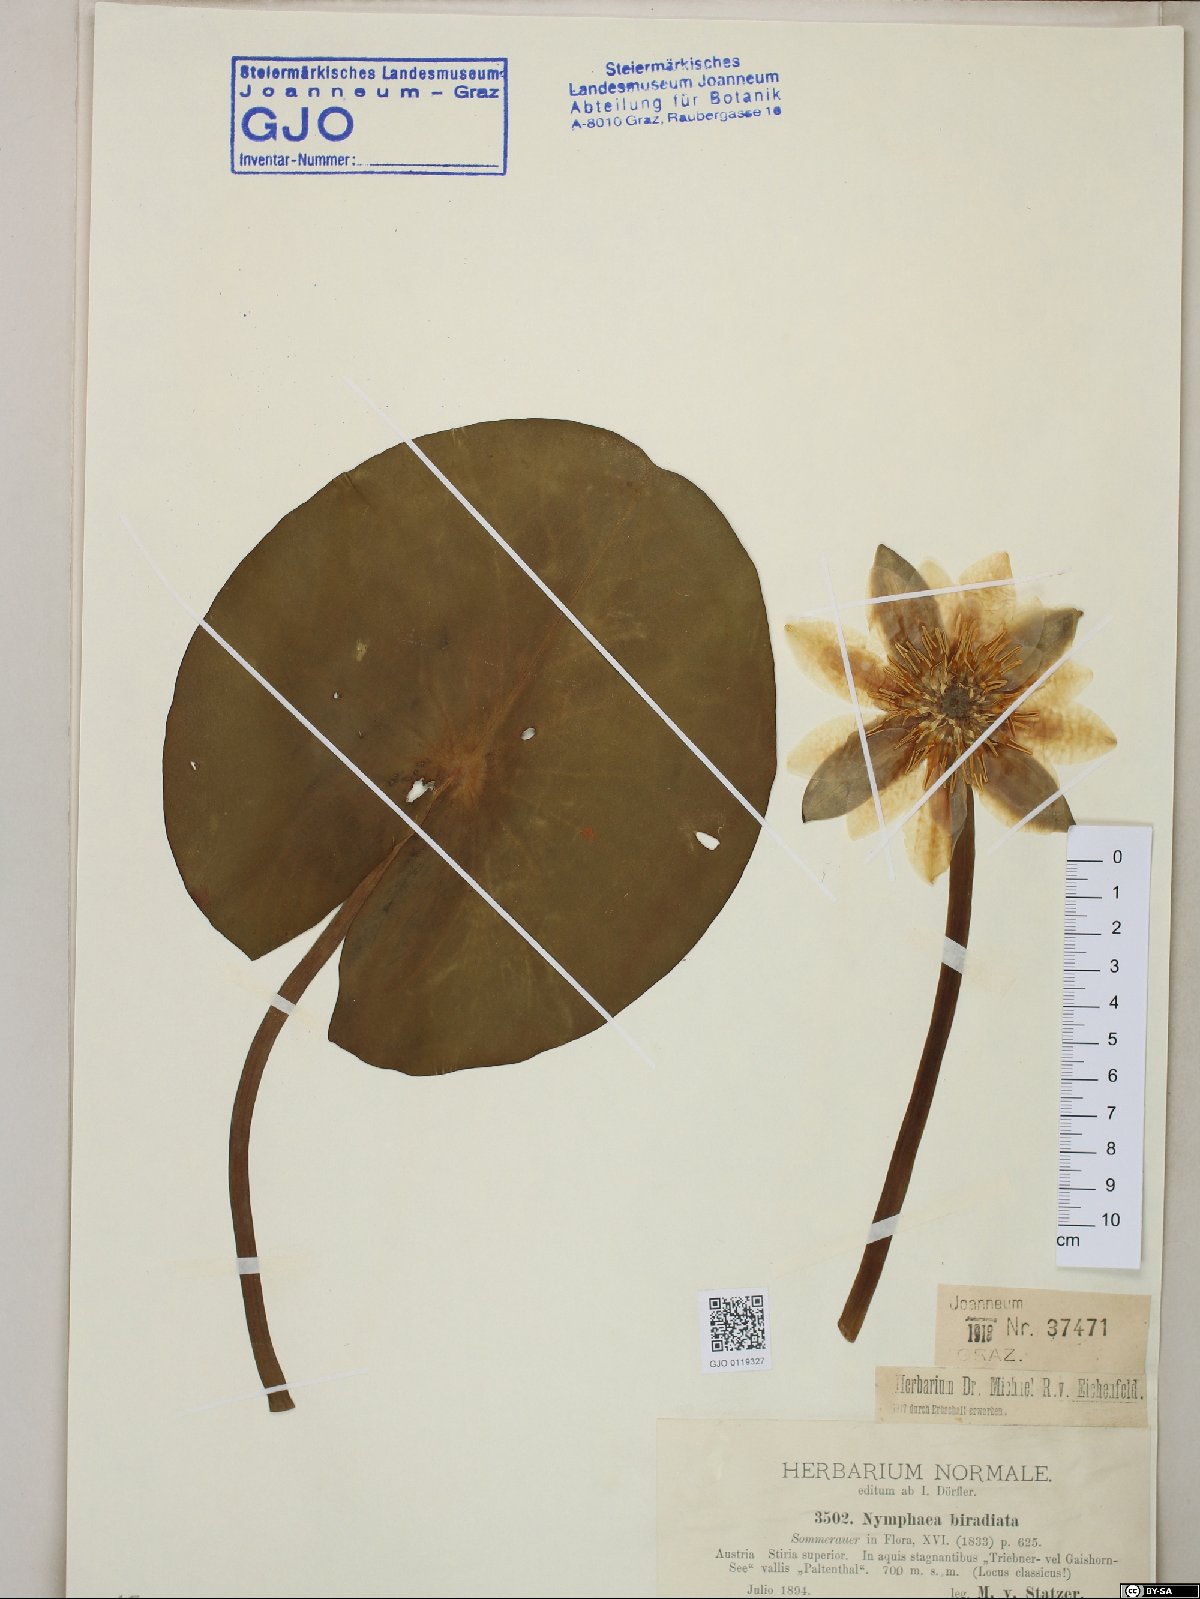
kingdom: Plantae
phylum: Tracheophyta
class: Magnoliopsida
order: Nymphaeales
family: Nymphaeaceae
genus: Nymphaea
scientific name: Nymphaea candida
